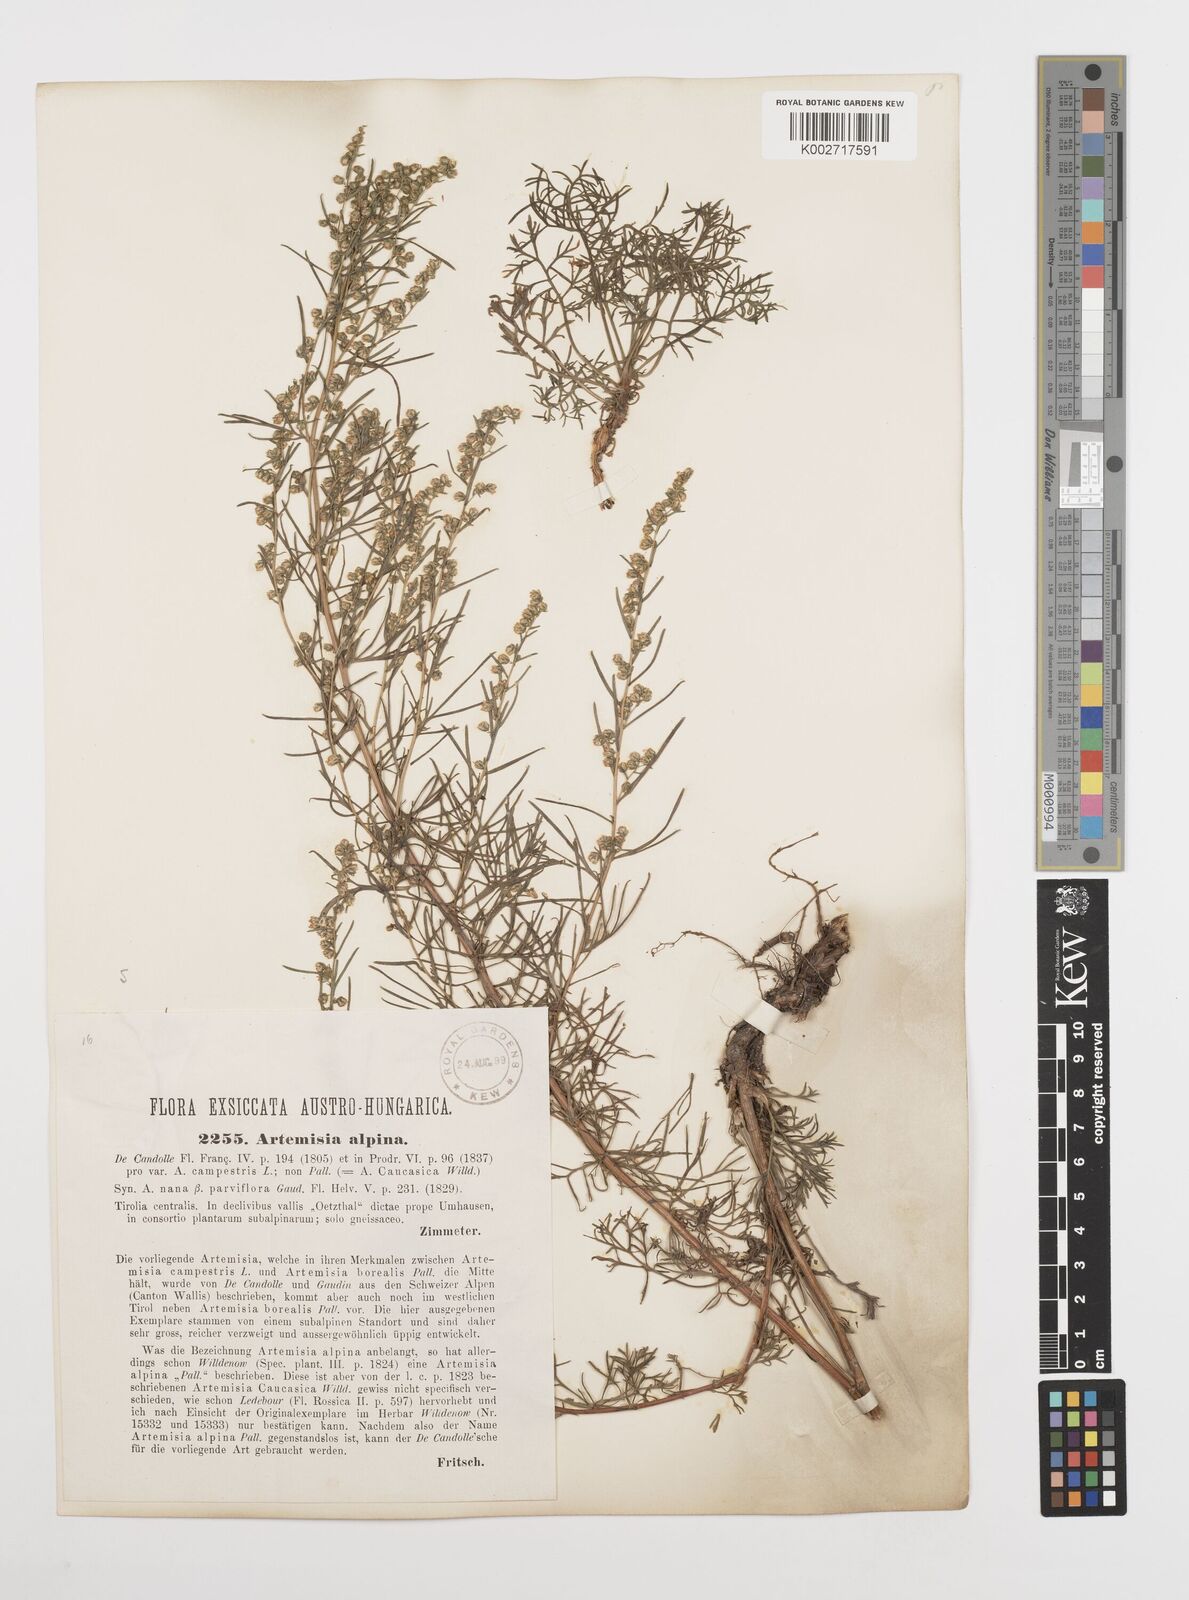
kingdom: Plantae
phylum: Tracheophyta
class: Magnoliopsida
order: Asterales
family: Asteraceae
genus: Artemisia
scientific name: Artemisia campestris
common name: Field wormwood
